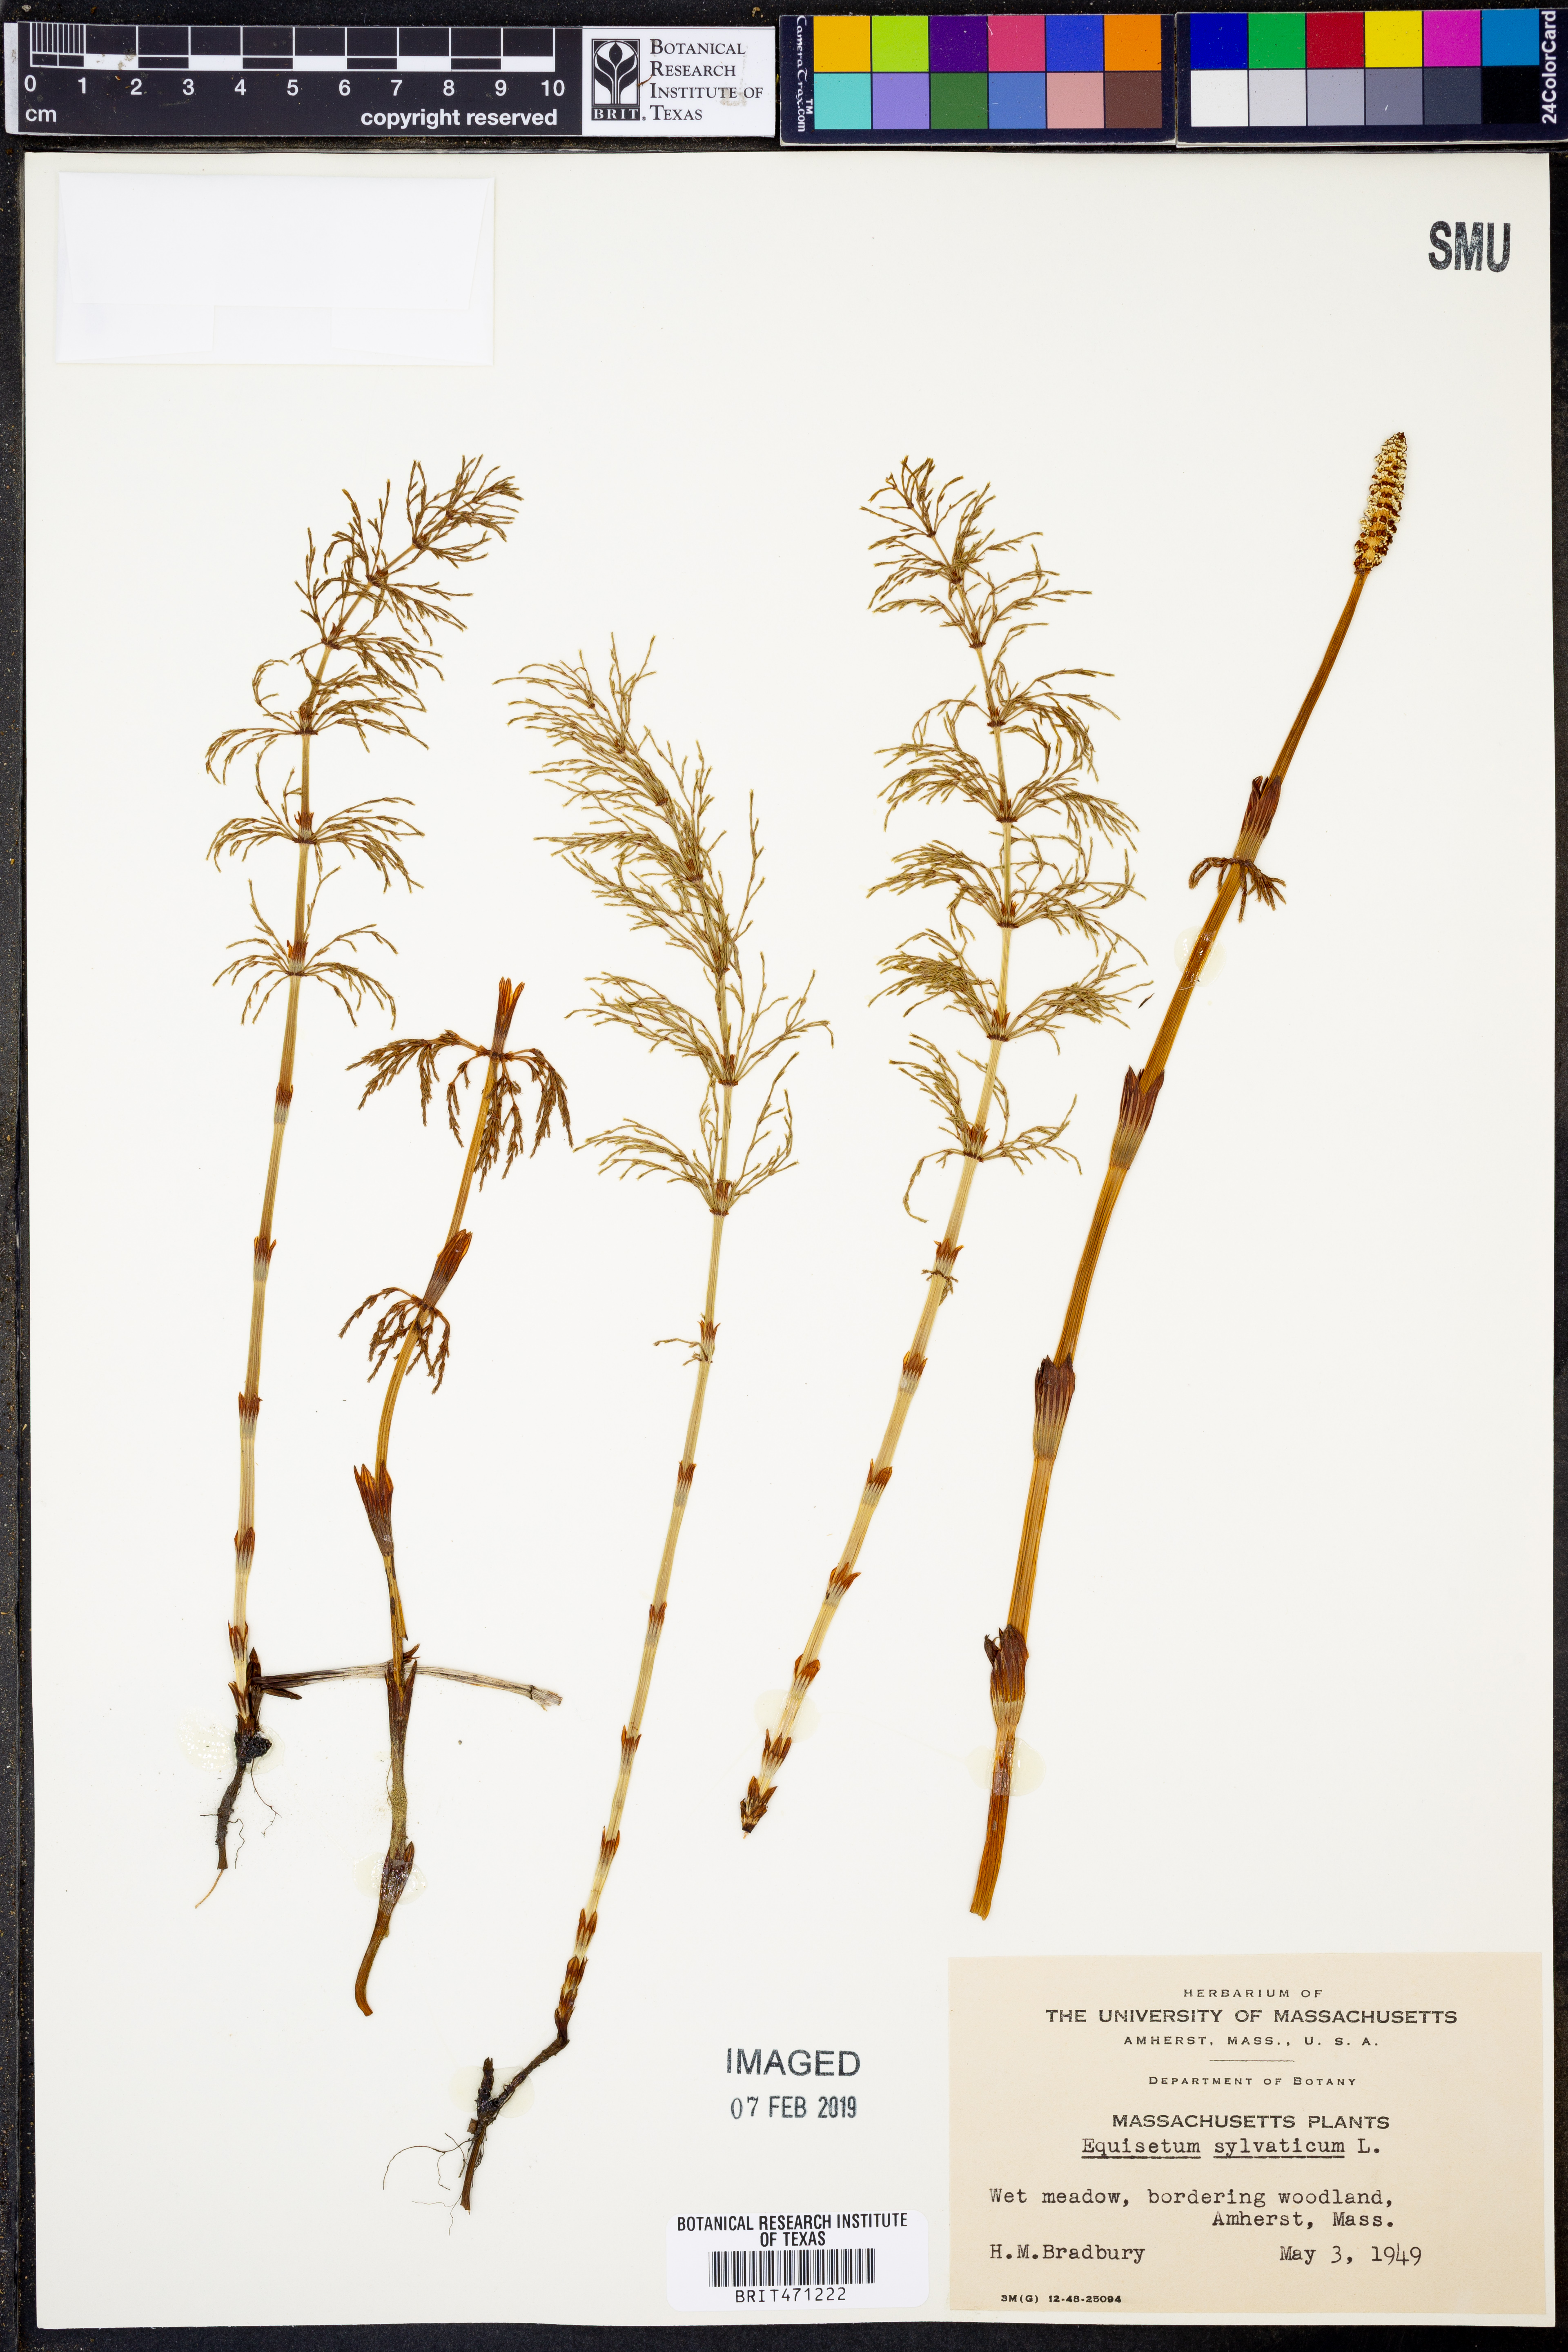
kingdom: Plantae
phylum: Tracheophyta
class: Polypodiopsida
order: Equisetales
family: Equisetaceae
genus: Equisetum
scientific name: Equisetum sylvaticum
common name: Wood horsetail
